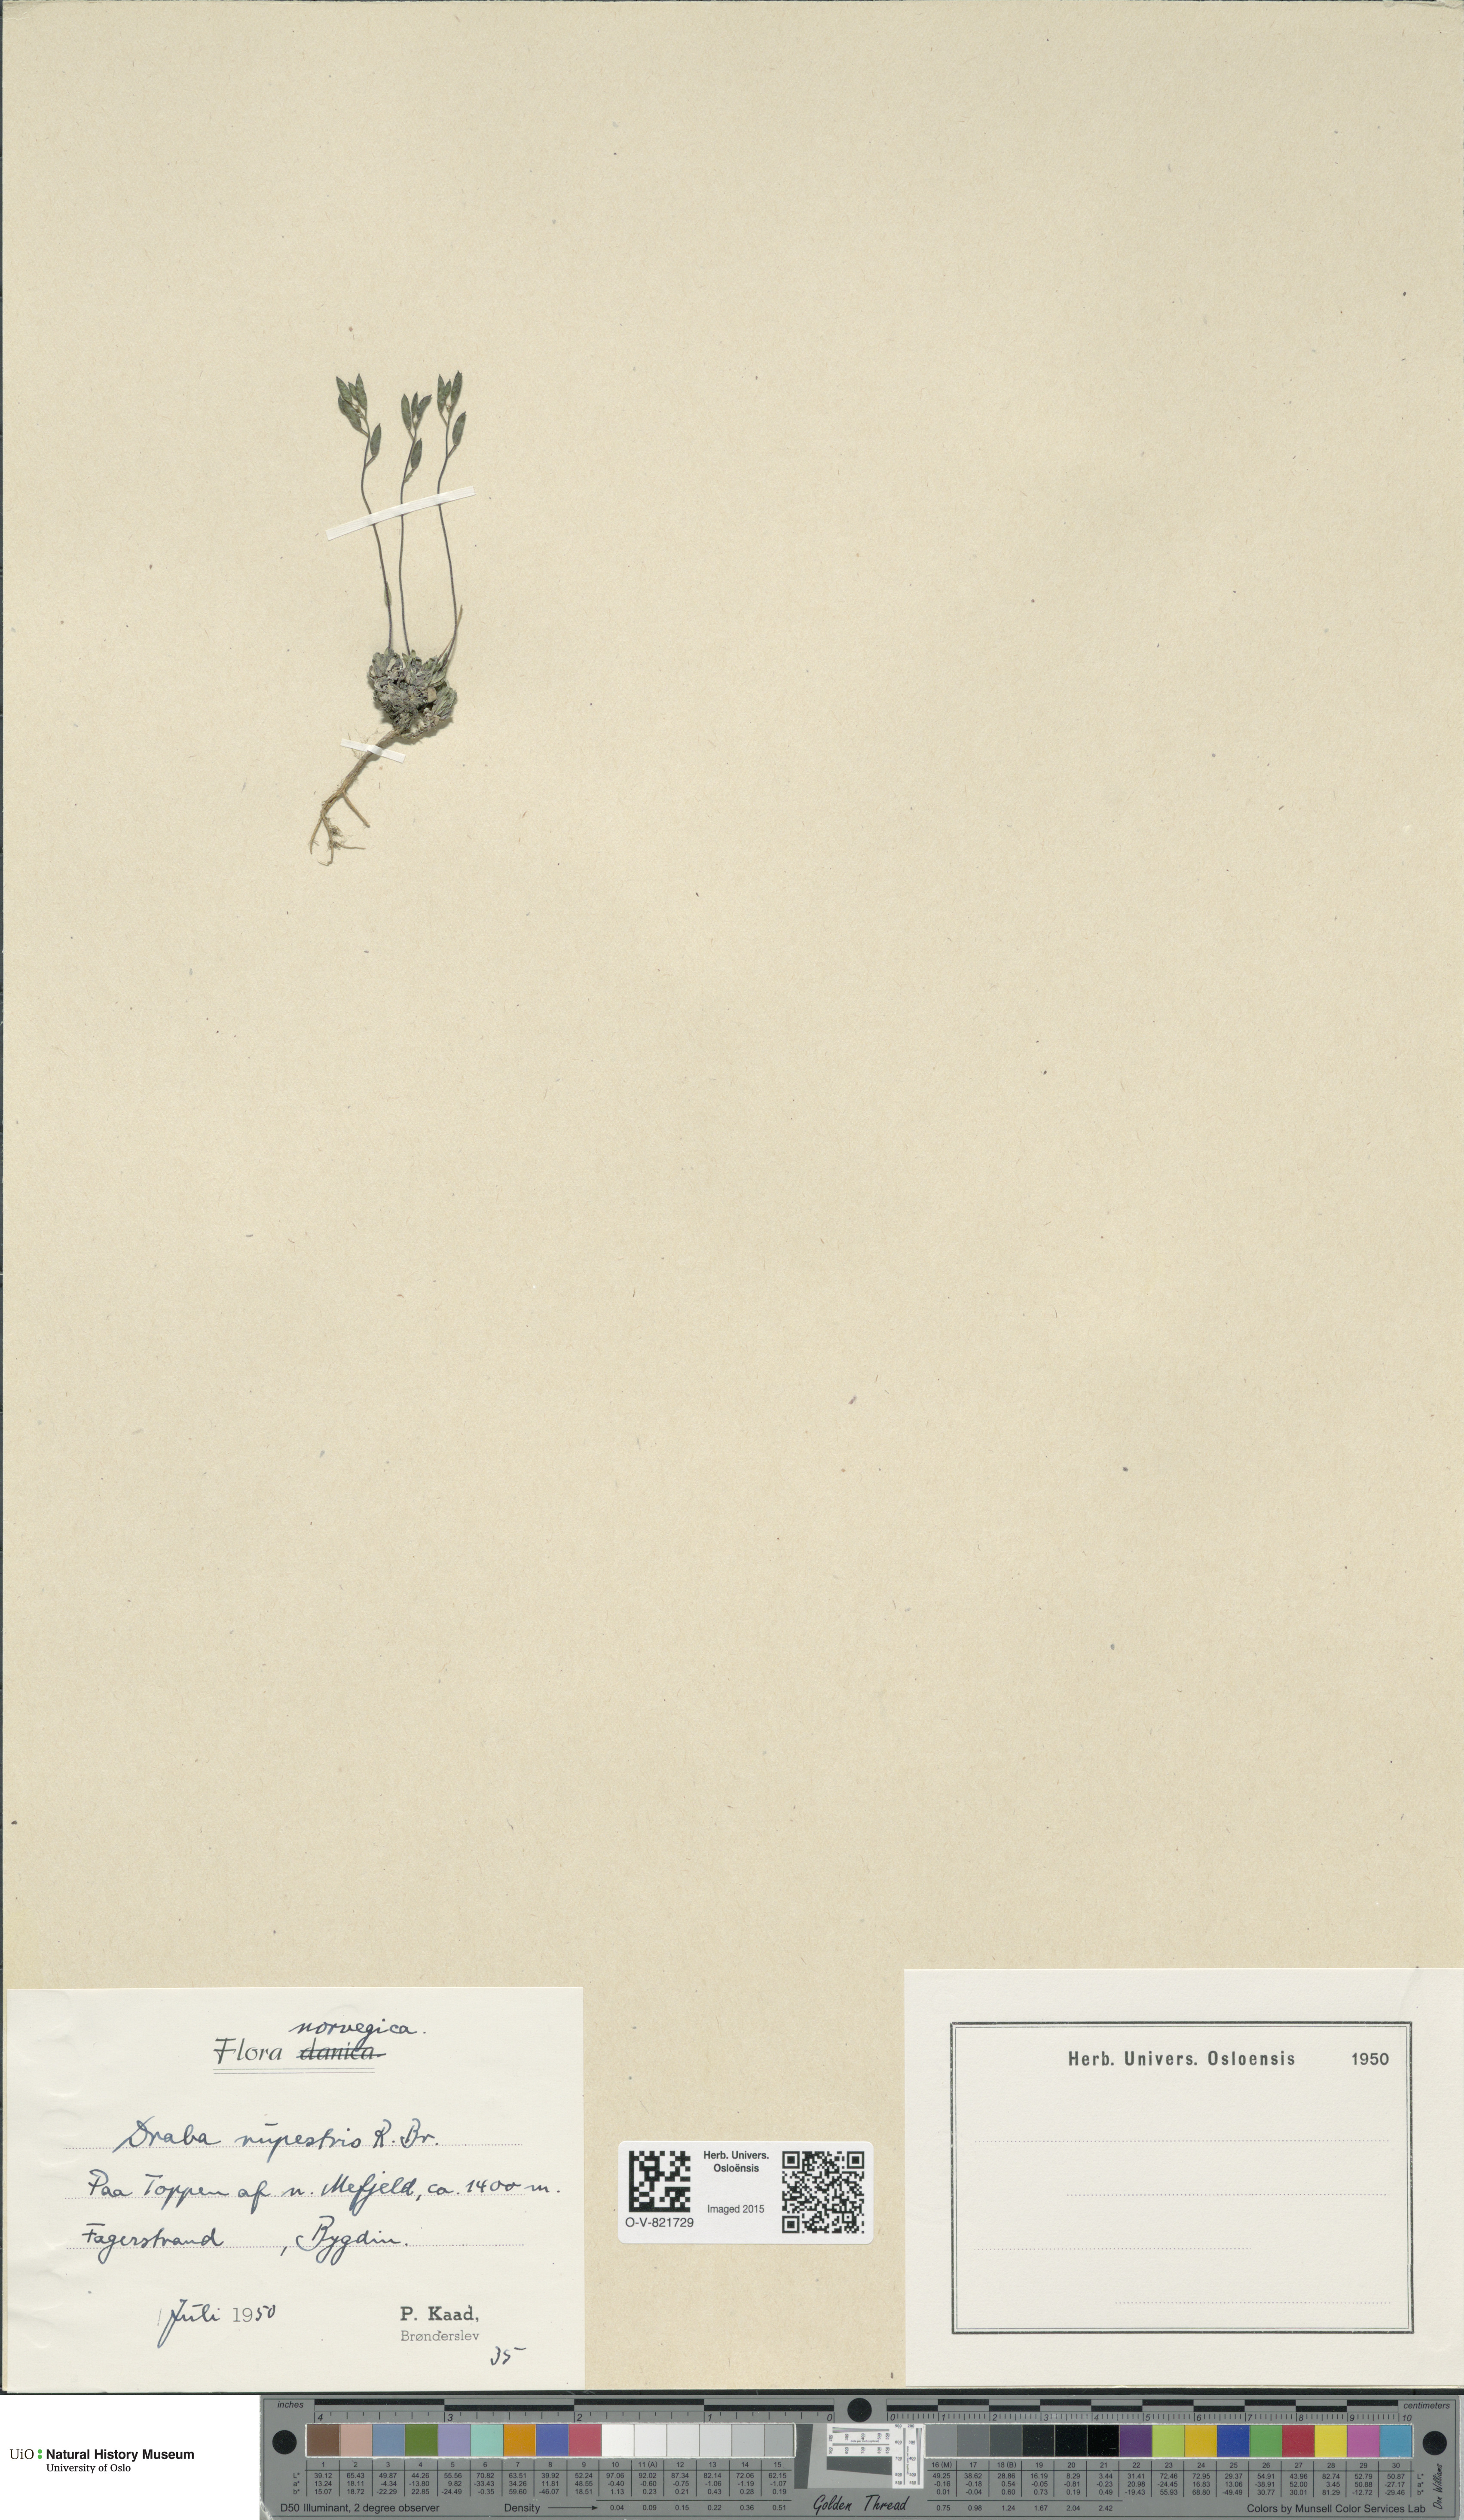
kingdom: Plantae
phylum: Tracheophyta
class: Magnoliopsida
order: Brassicales
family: Brassicaceae
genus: Draba
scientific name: Draba norvegica
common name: Rock whitlowgrass
